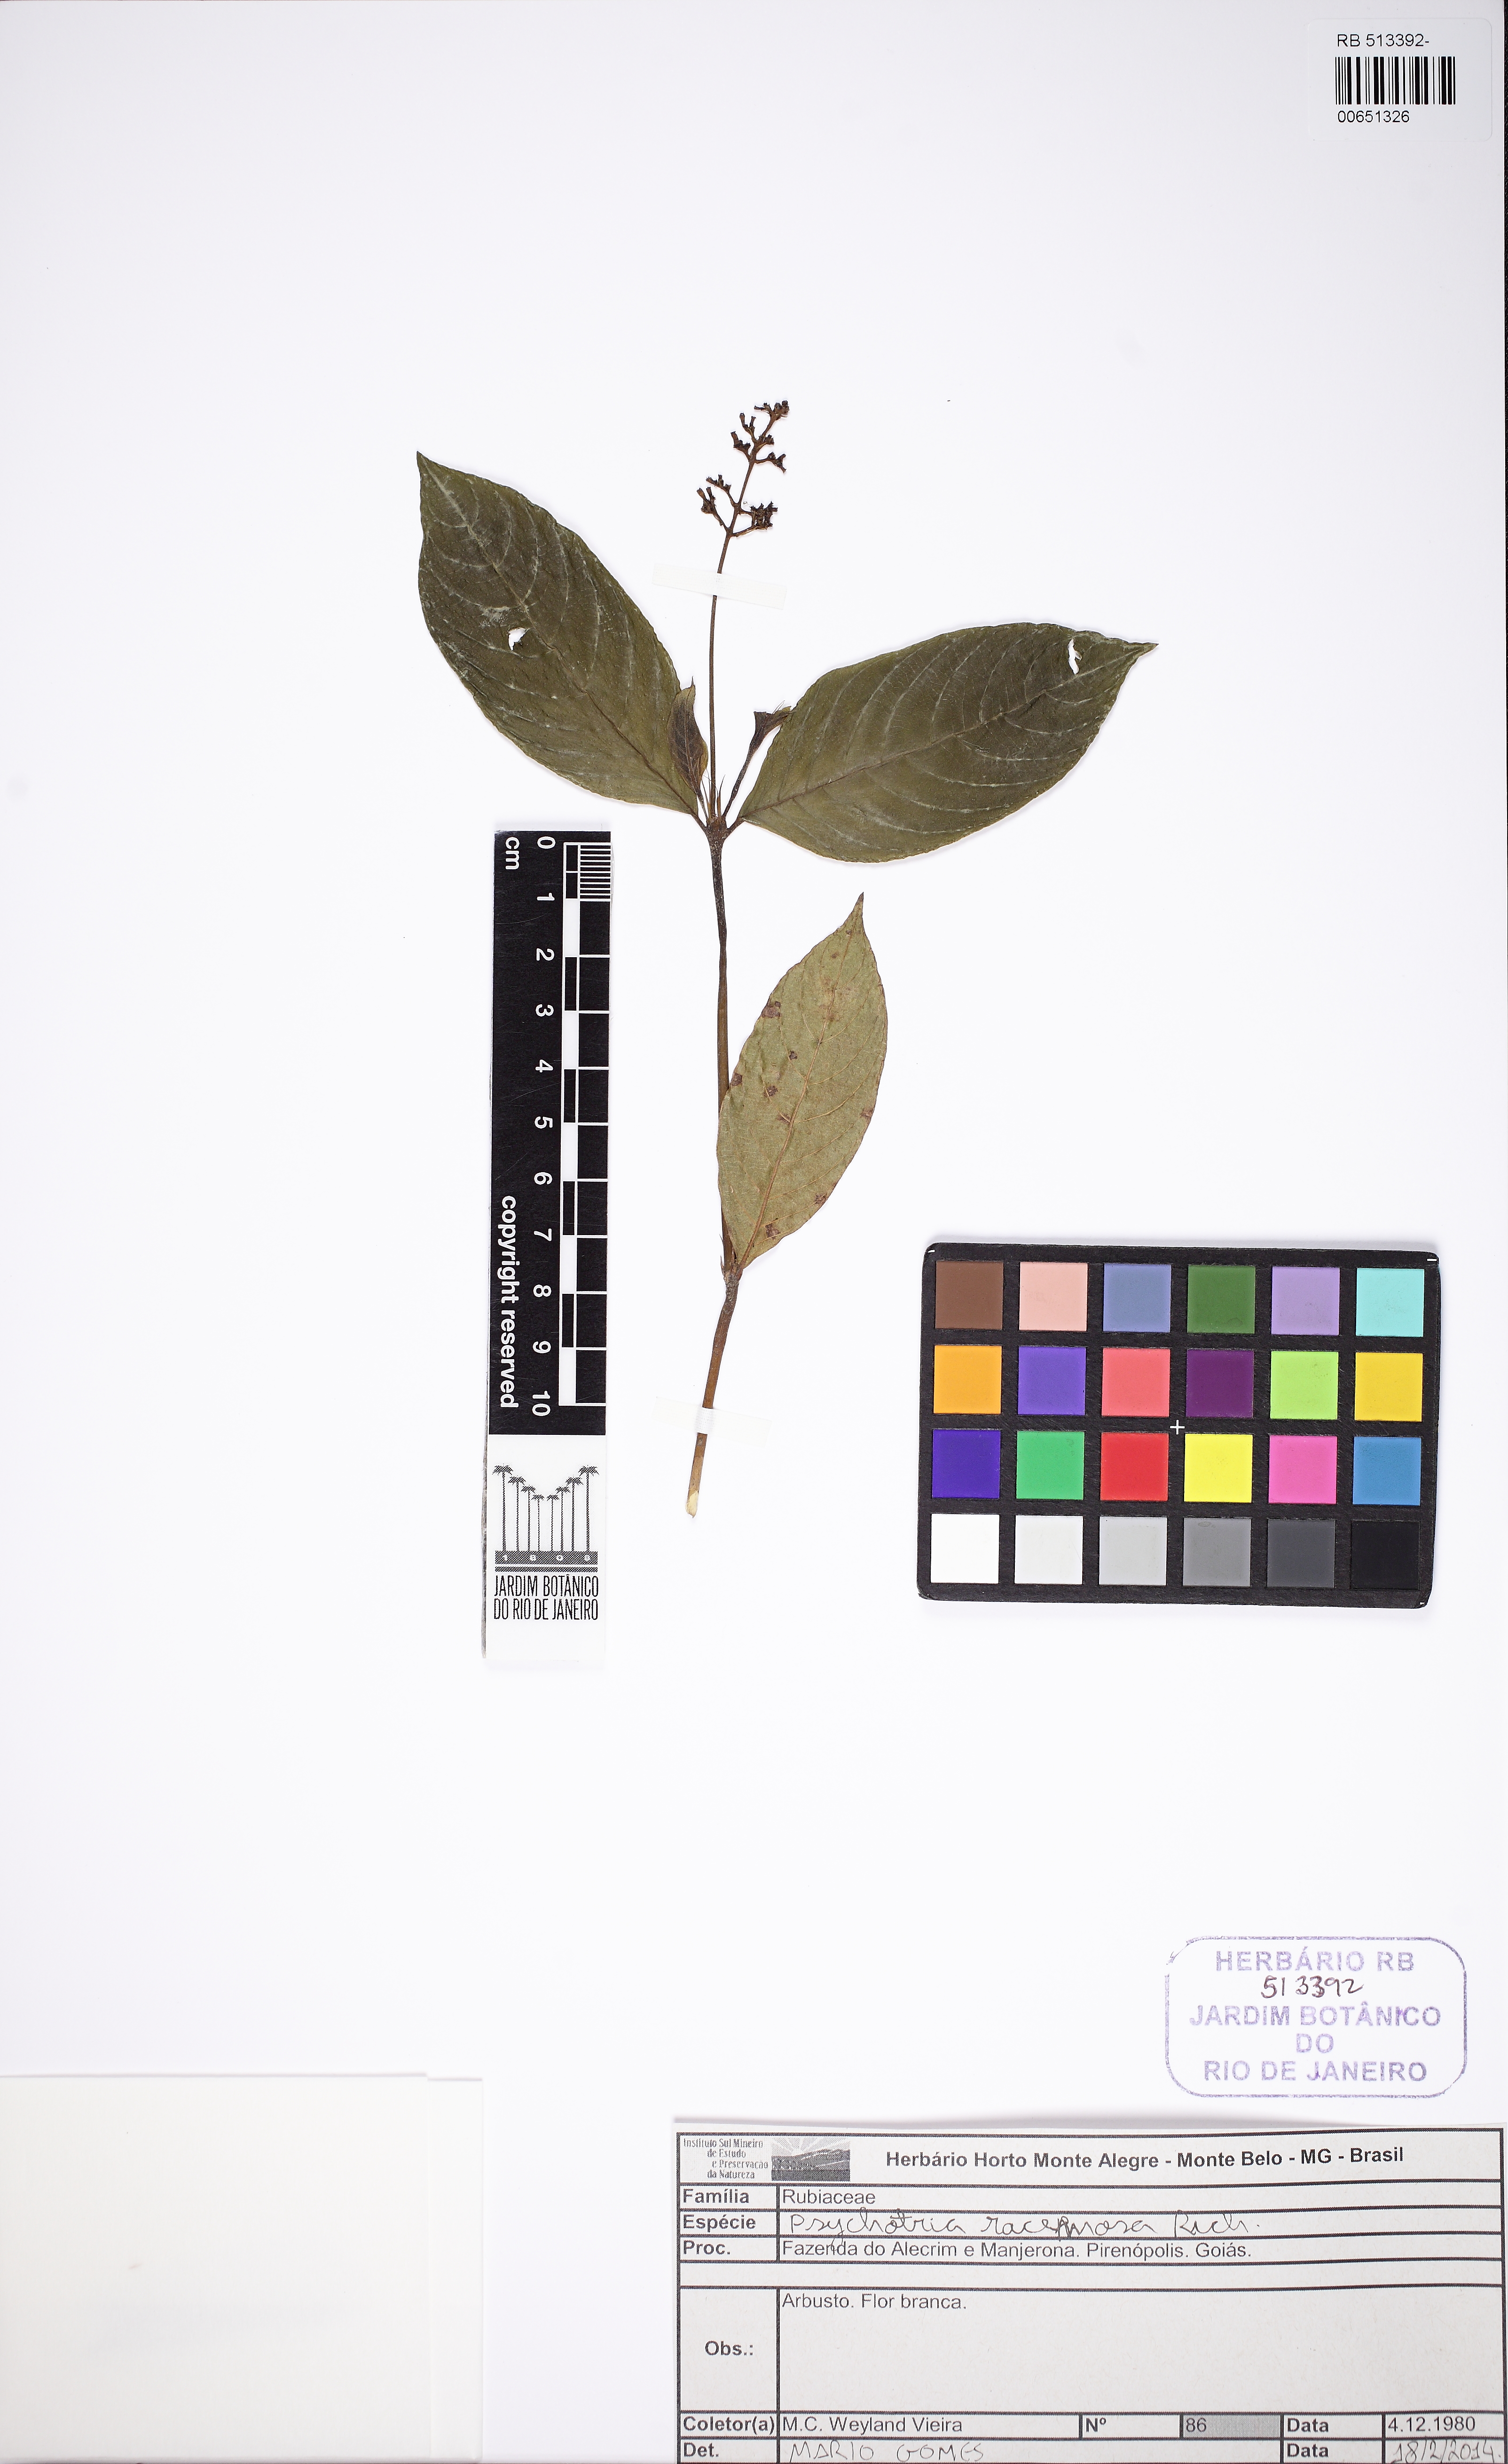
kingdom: Plantae
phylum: Tracheophyta
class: Magnoliopsida
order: Gentianales
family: Rubiaceae
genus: Palicourea
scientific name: Palicourea racemosa
